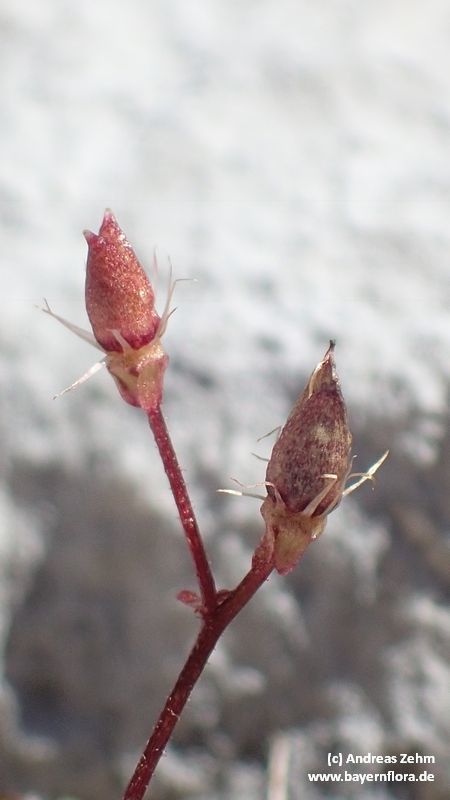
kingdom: Plantae
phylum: Tracheophyta
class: Magnoliopsida
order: Saxifragales
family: Saxifragaceae
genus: Micranthes
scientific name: Micranthes stellaris
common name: Starry saxifrage
